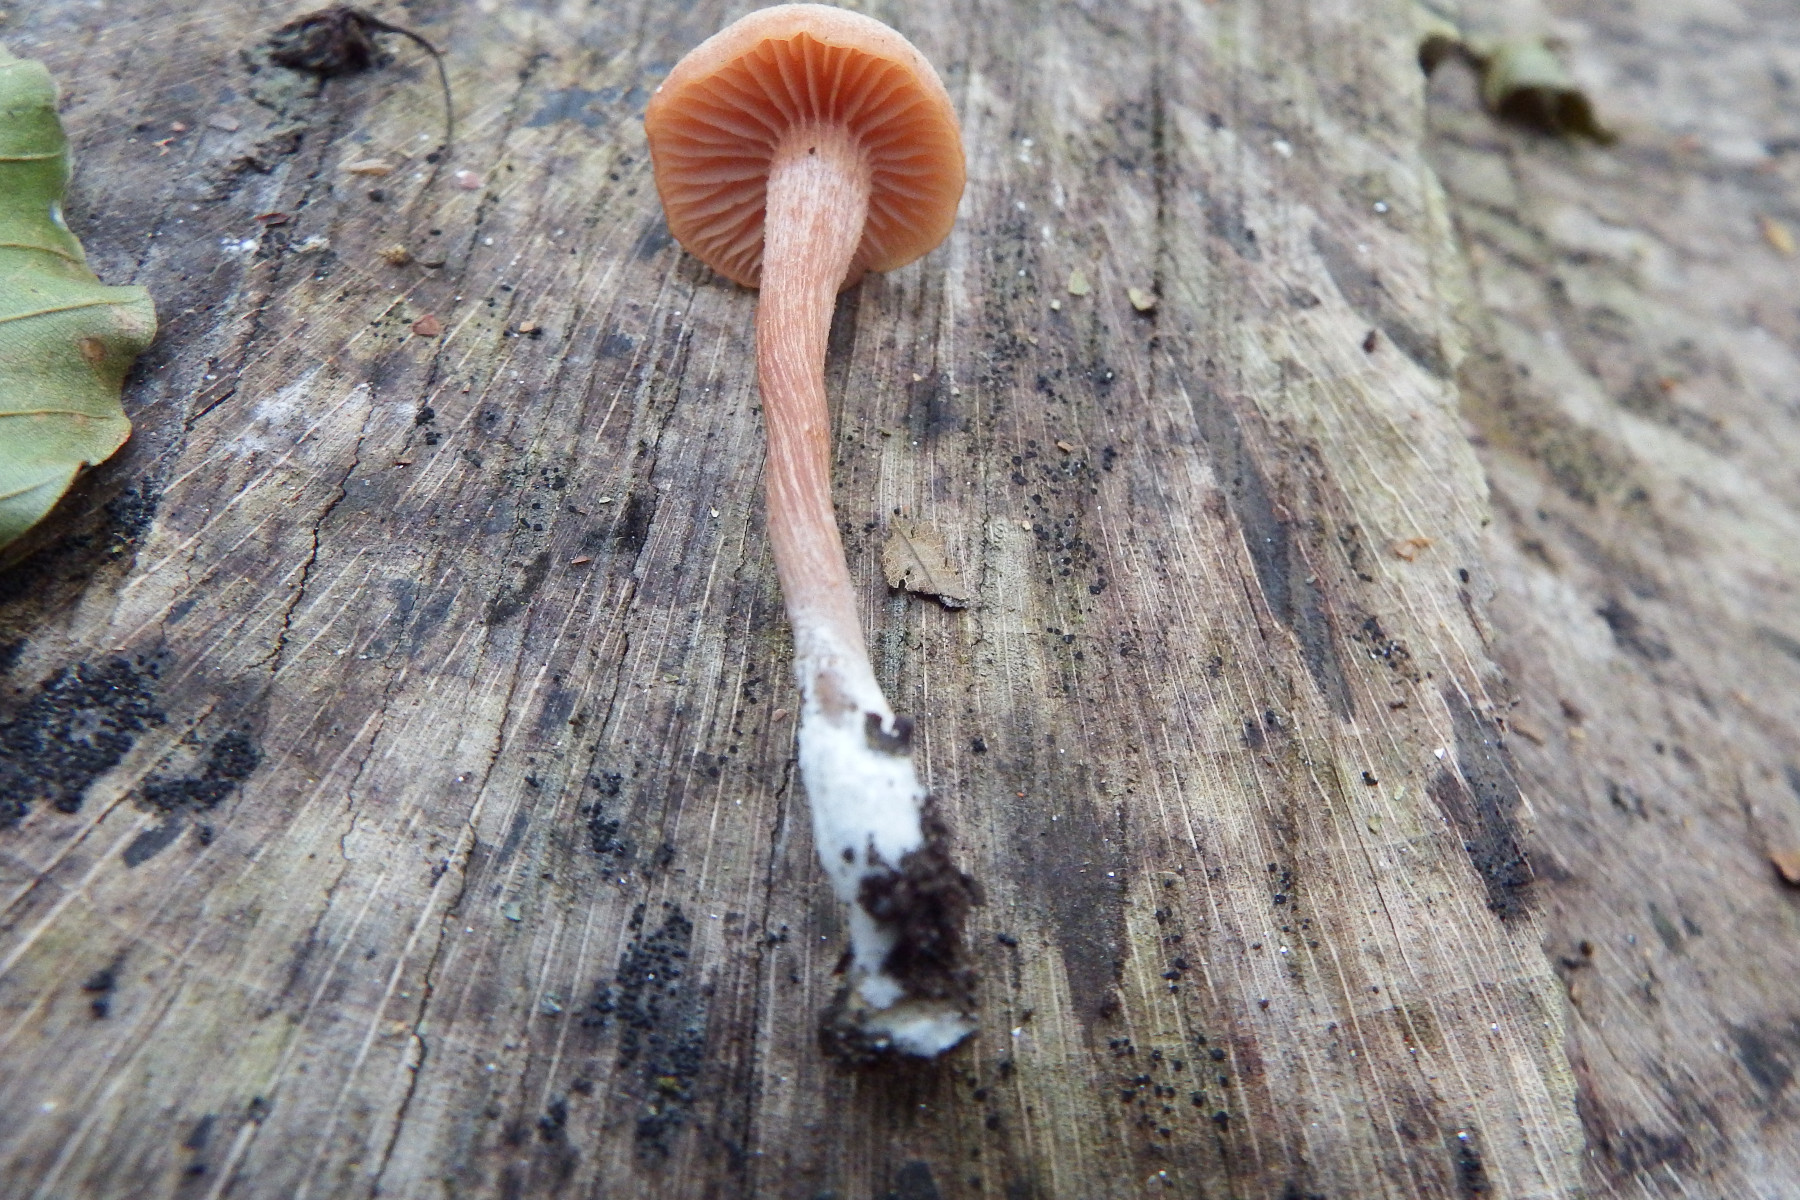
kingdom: Fungi
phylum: Basidiomycota
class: Agaricomycetes
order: Agaricales
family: Hydnangiaceae
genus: Laccaria
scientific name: Laccaria laccata
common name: rød ametysthat
